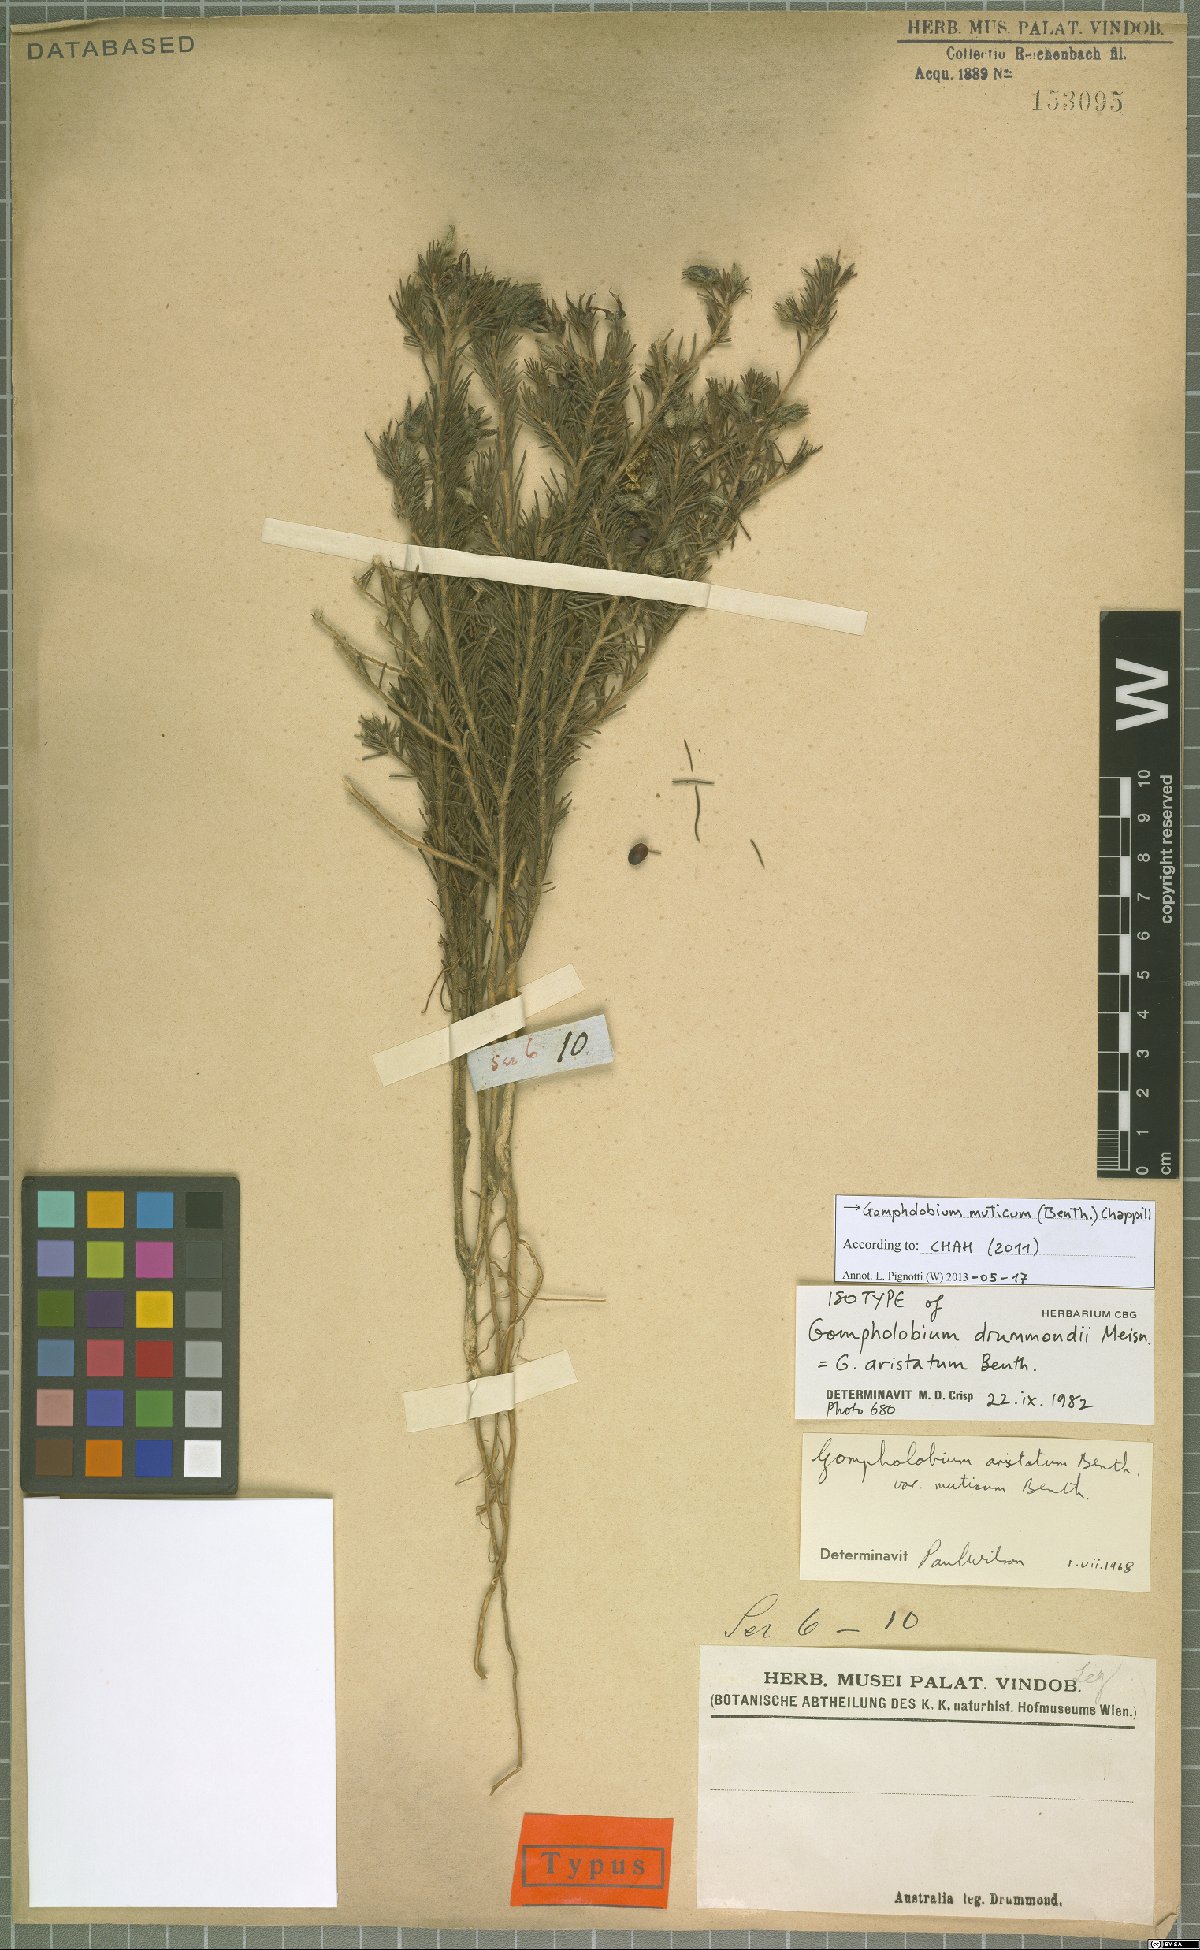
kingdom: Plantae
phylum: Tracheophyta
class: Magnoliopsida
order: Fabales
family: Fabaceae
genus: Gompholobium
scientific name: Gompholobium muticum
